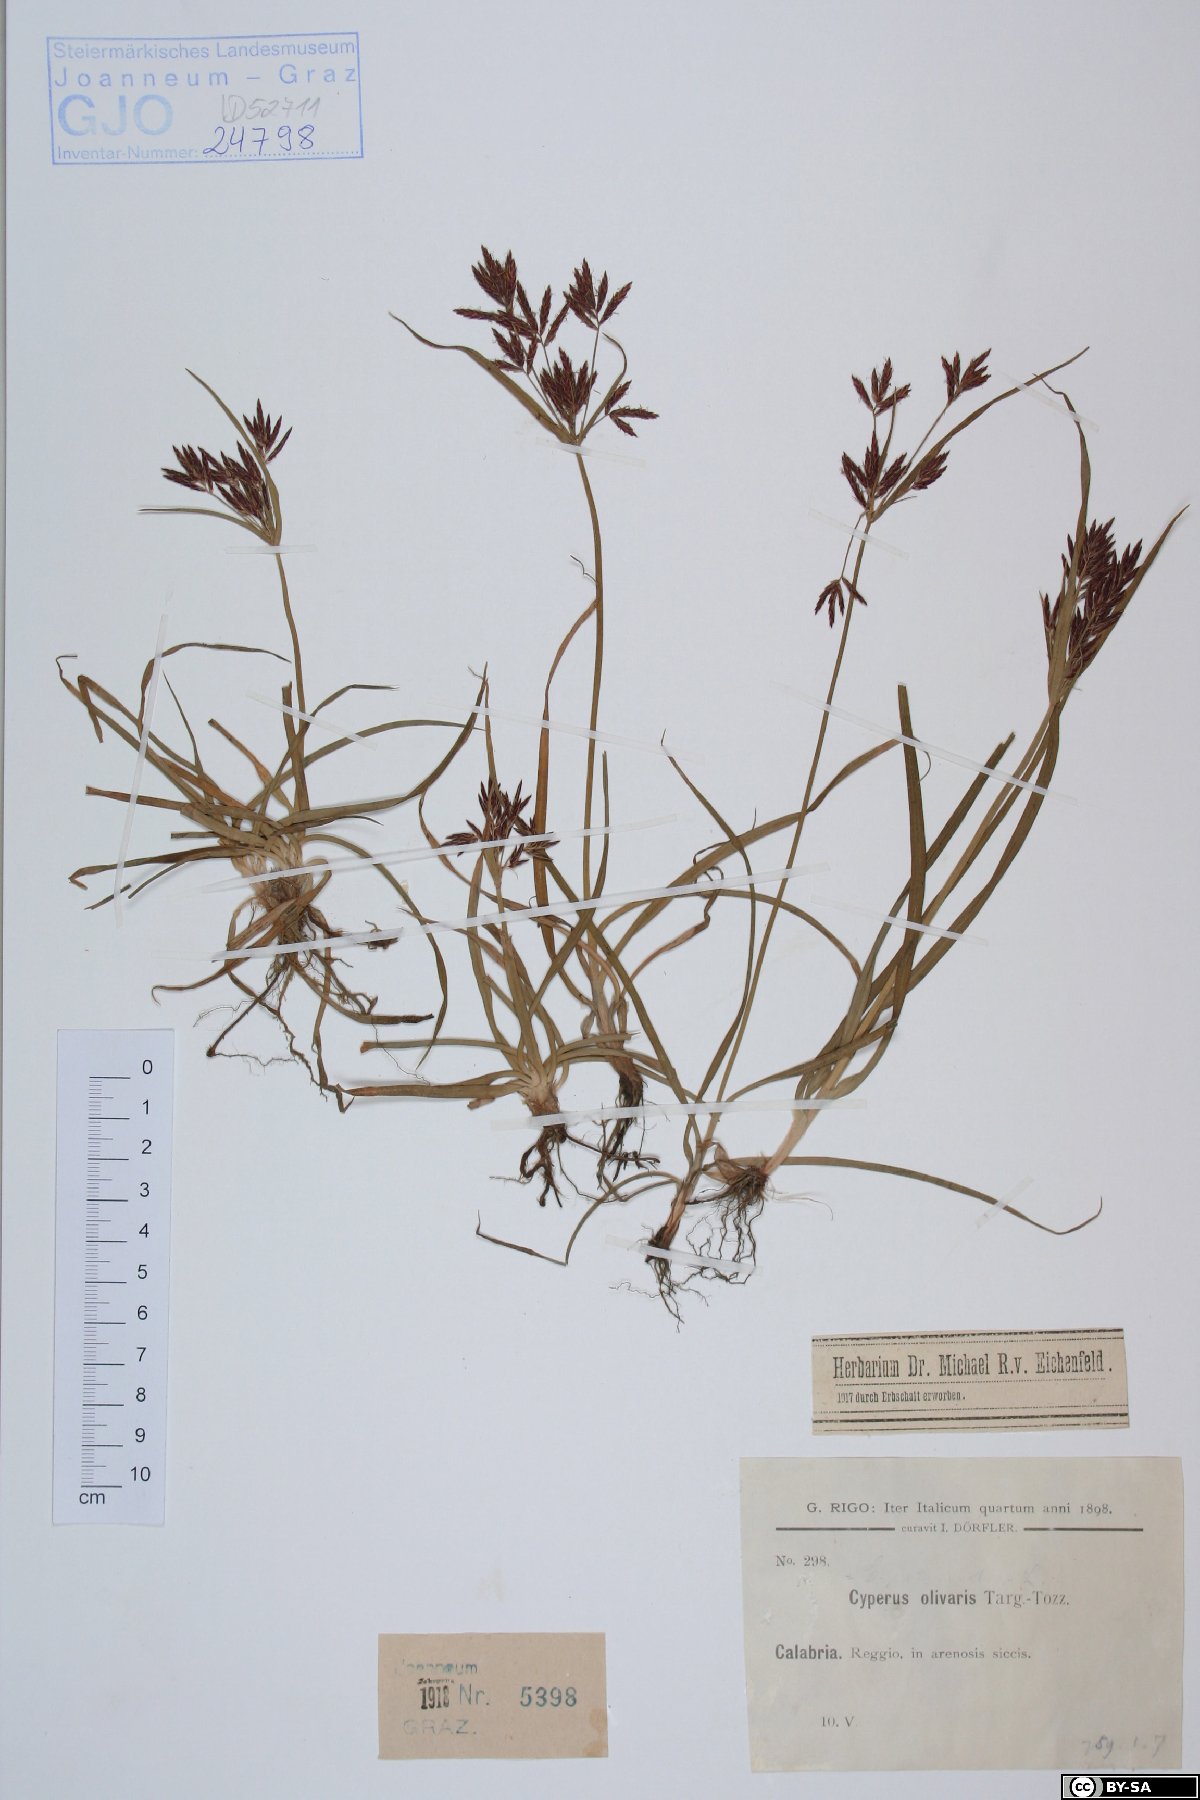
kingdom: Plantae
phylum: Tracheophyta
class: Liliopsida
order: Poales
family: Cyperaceae
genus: Cyperus
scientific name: Cyperus rotundus
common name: Nutgrass
